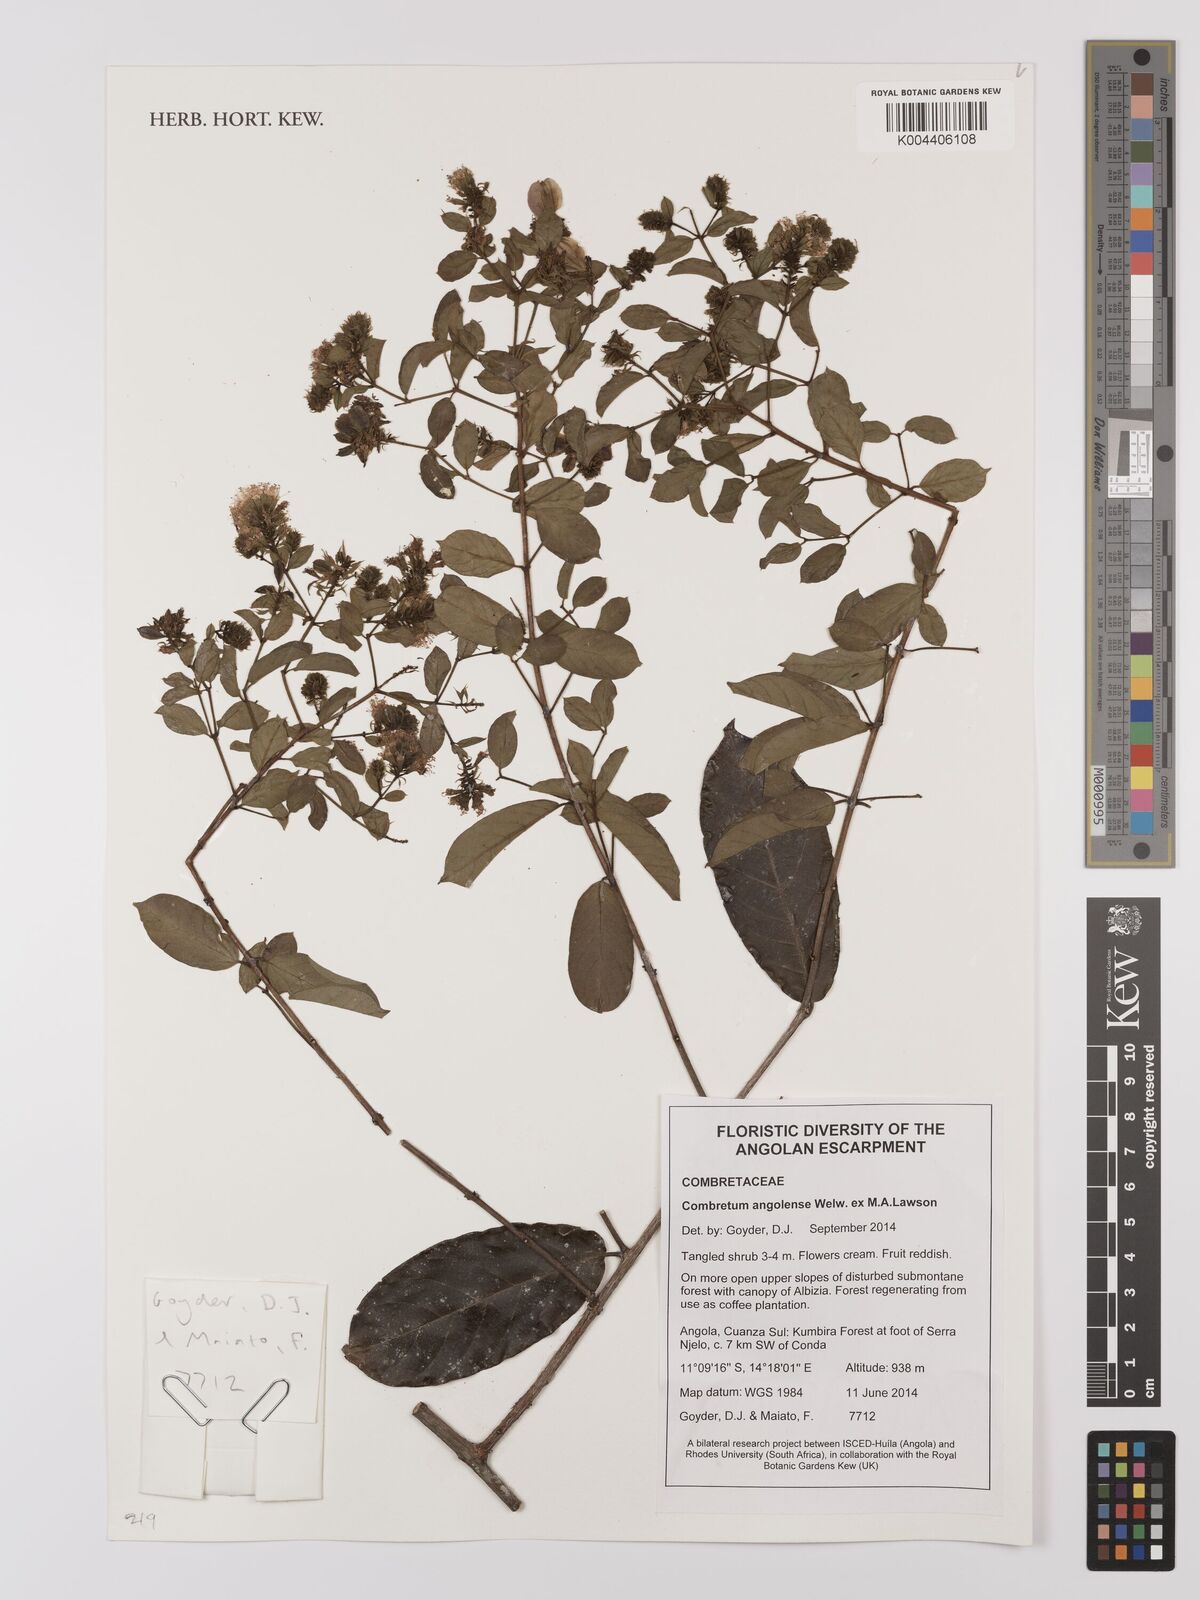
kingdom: Plantae
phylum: Tracheophyta
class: Magnoliopsida
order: Myrtales
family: Combretaceae
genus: Combretum
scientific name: Combretum angolense
